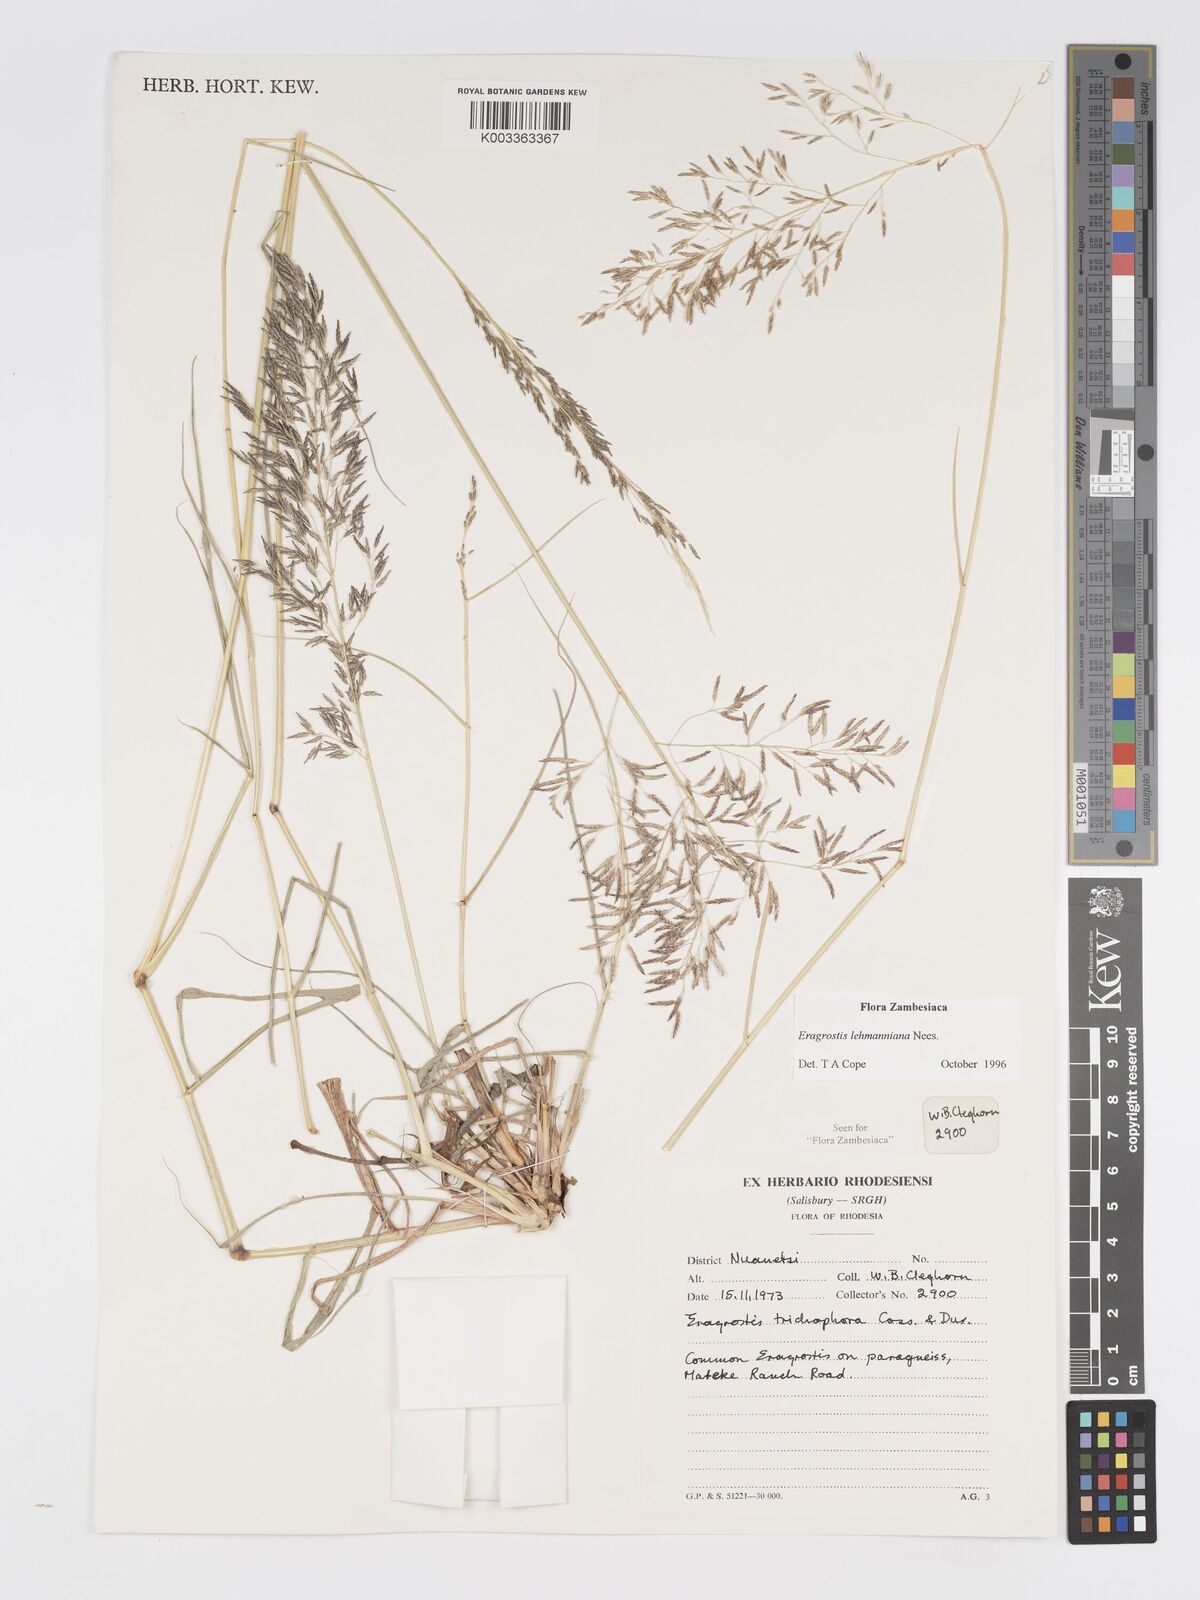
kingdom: Plantae
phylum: Tracheophyta
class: Liliopsida
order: Poales
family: Poaceae
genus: Eragrostis
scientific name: Eragrostis lehmanniana
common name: Lehmann lovegrass
